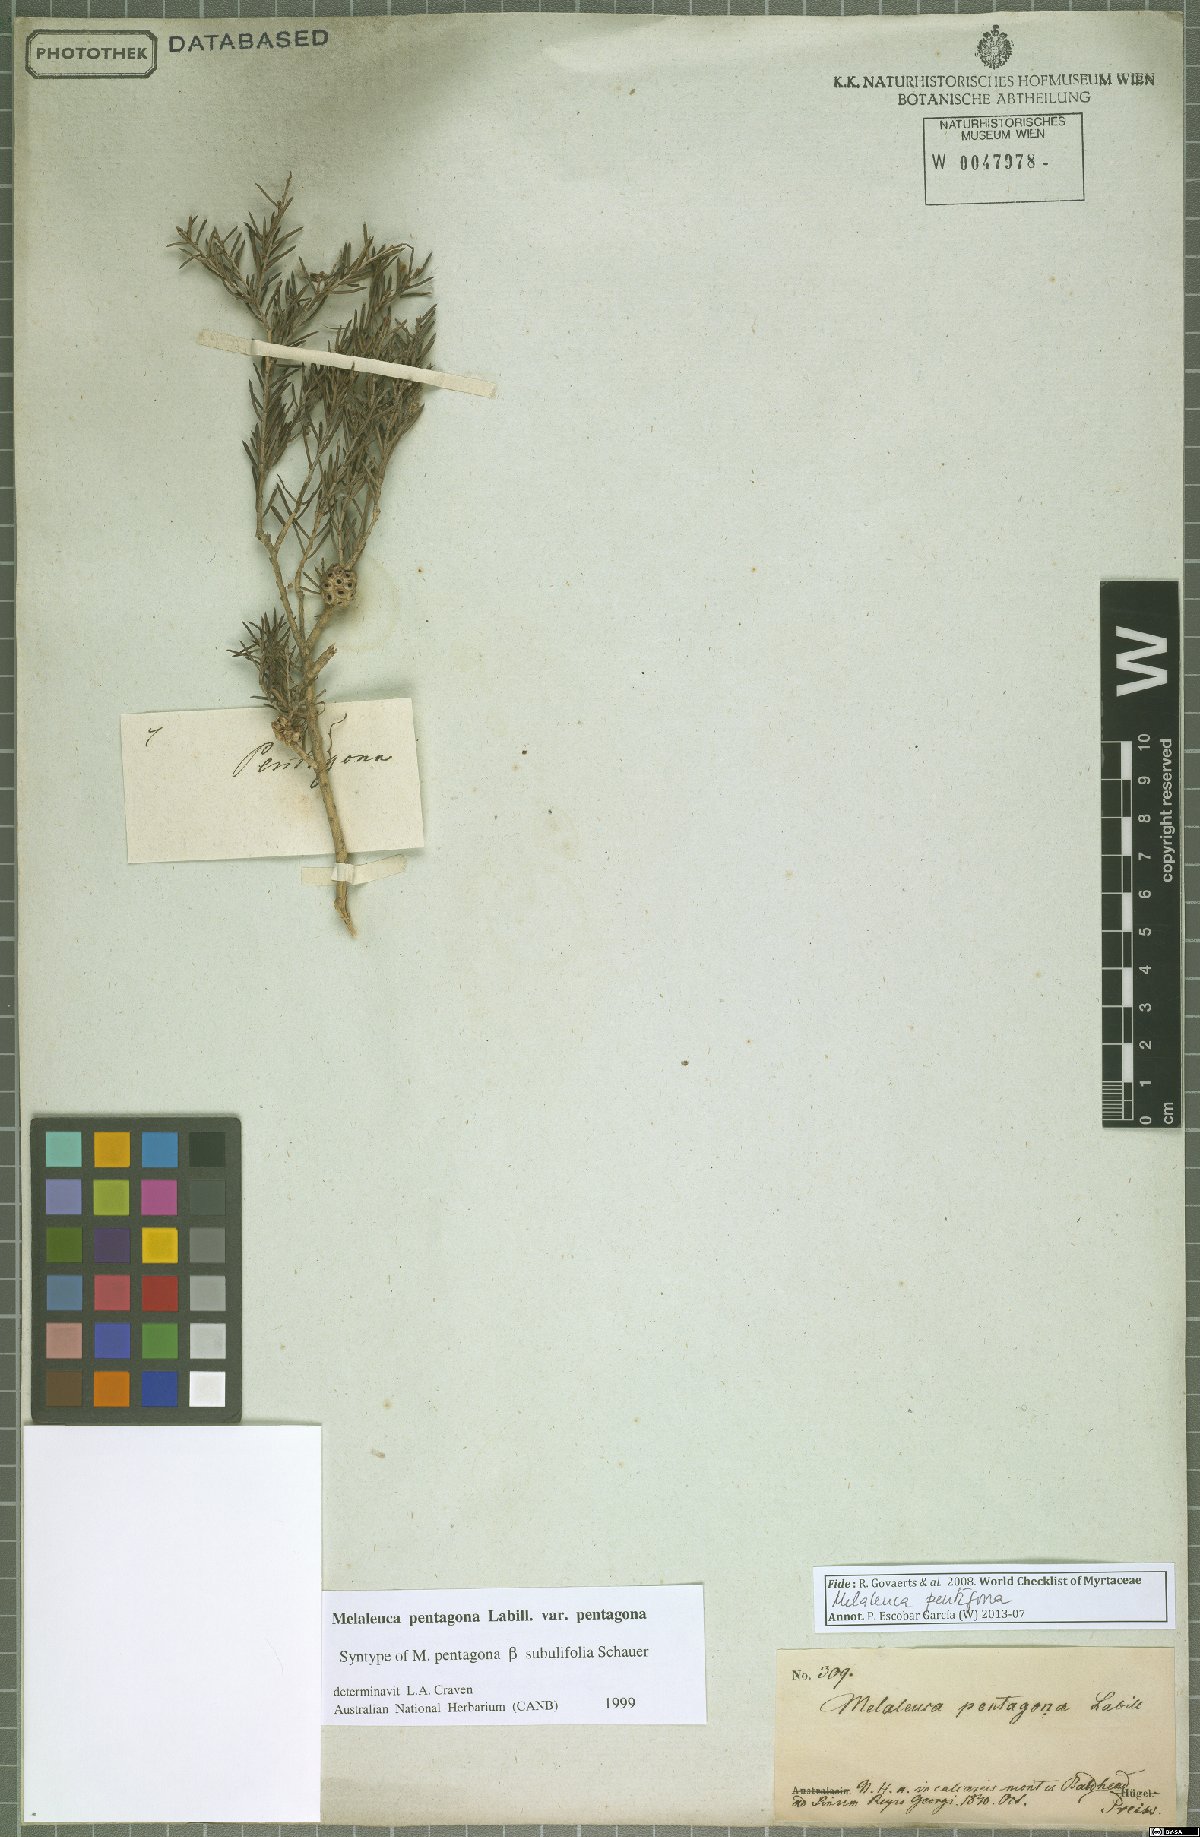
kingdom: Plantae
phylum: Tracheophyta
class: Magnoliopsida
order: Myrtales
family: Myrtaceae
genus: Melaleuca
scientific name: Melaleuca pentagona
